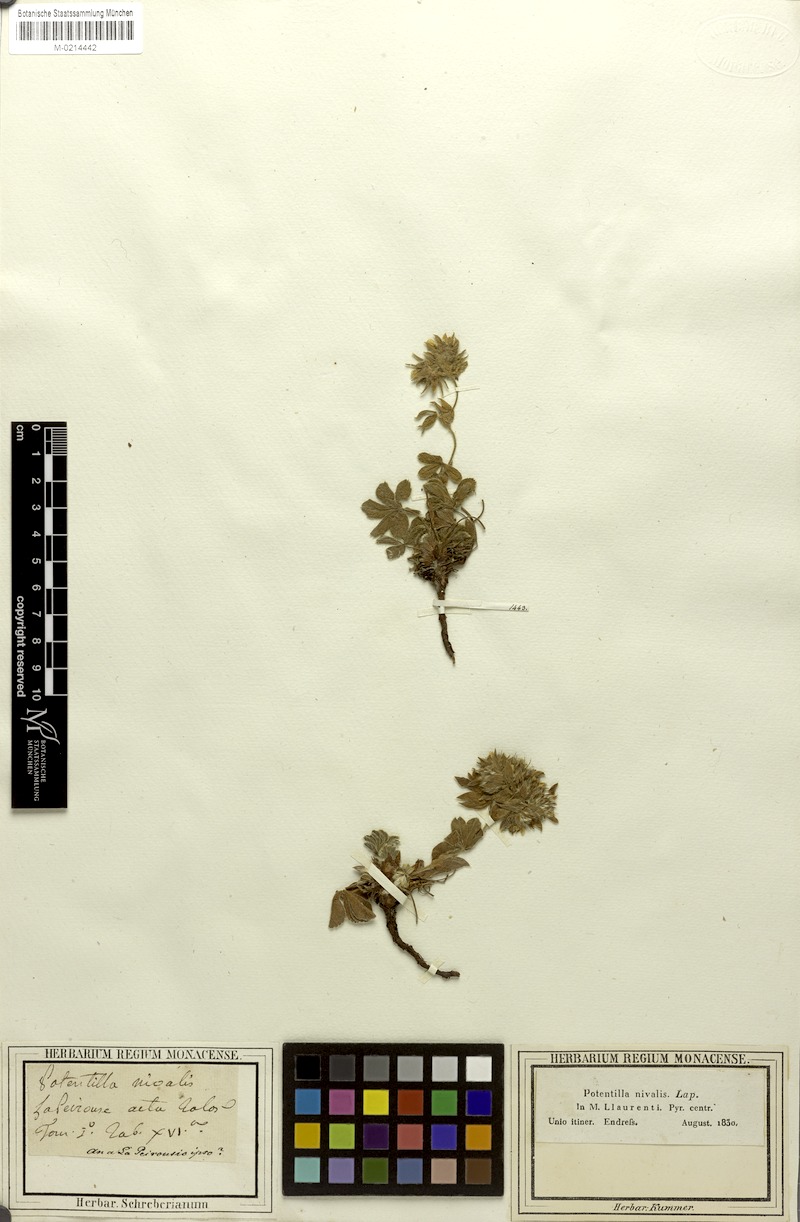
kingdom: Plantae
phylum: Tracheophyta
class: Magnoliopsida
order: Rosales
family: Rosaceae
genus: Potentilla
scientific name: Potentilla nivalis
